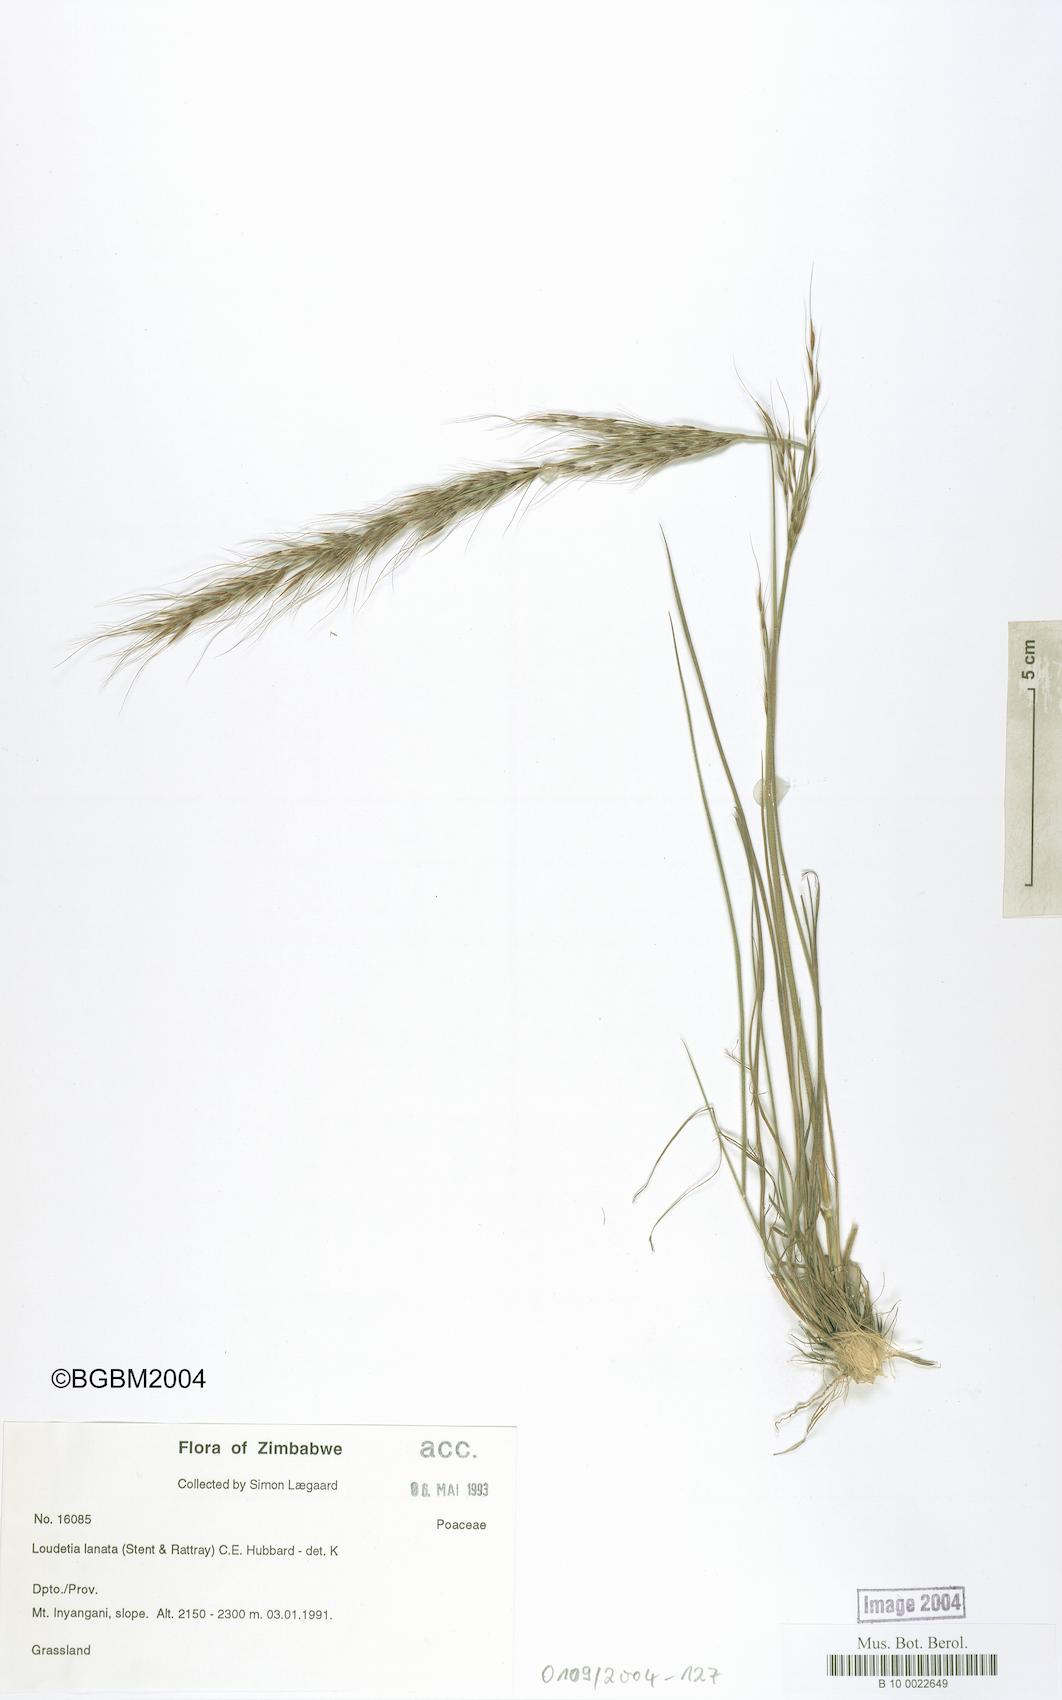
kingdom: Plantae
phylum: Tracheophyta
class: Liliopsida
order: Poales
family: Poaceae
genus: Loudetia
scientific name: Loudetia lanata
